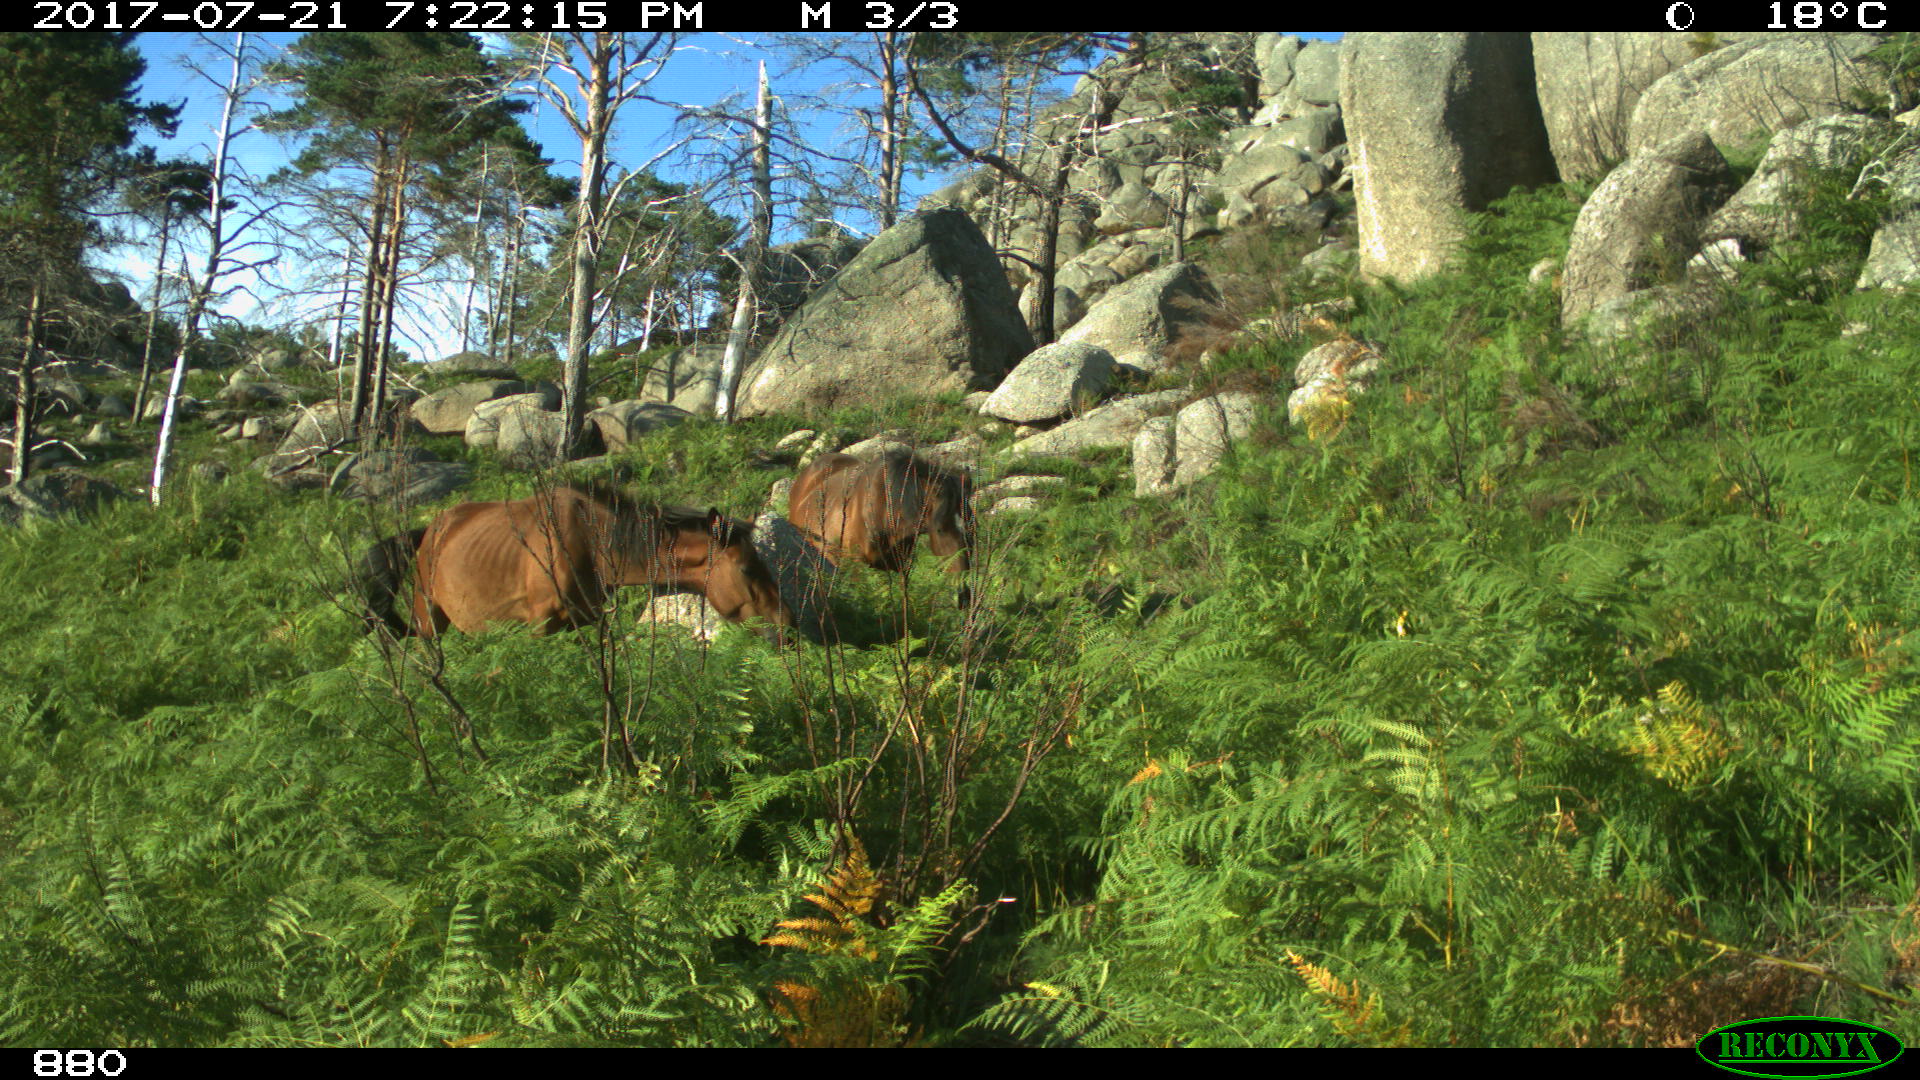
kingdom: Animalia
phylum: Chordata
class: Mammalia
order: Perissodactyla
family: Equidae
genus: Equus
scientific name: Equus caballus
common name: Horse
